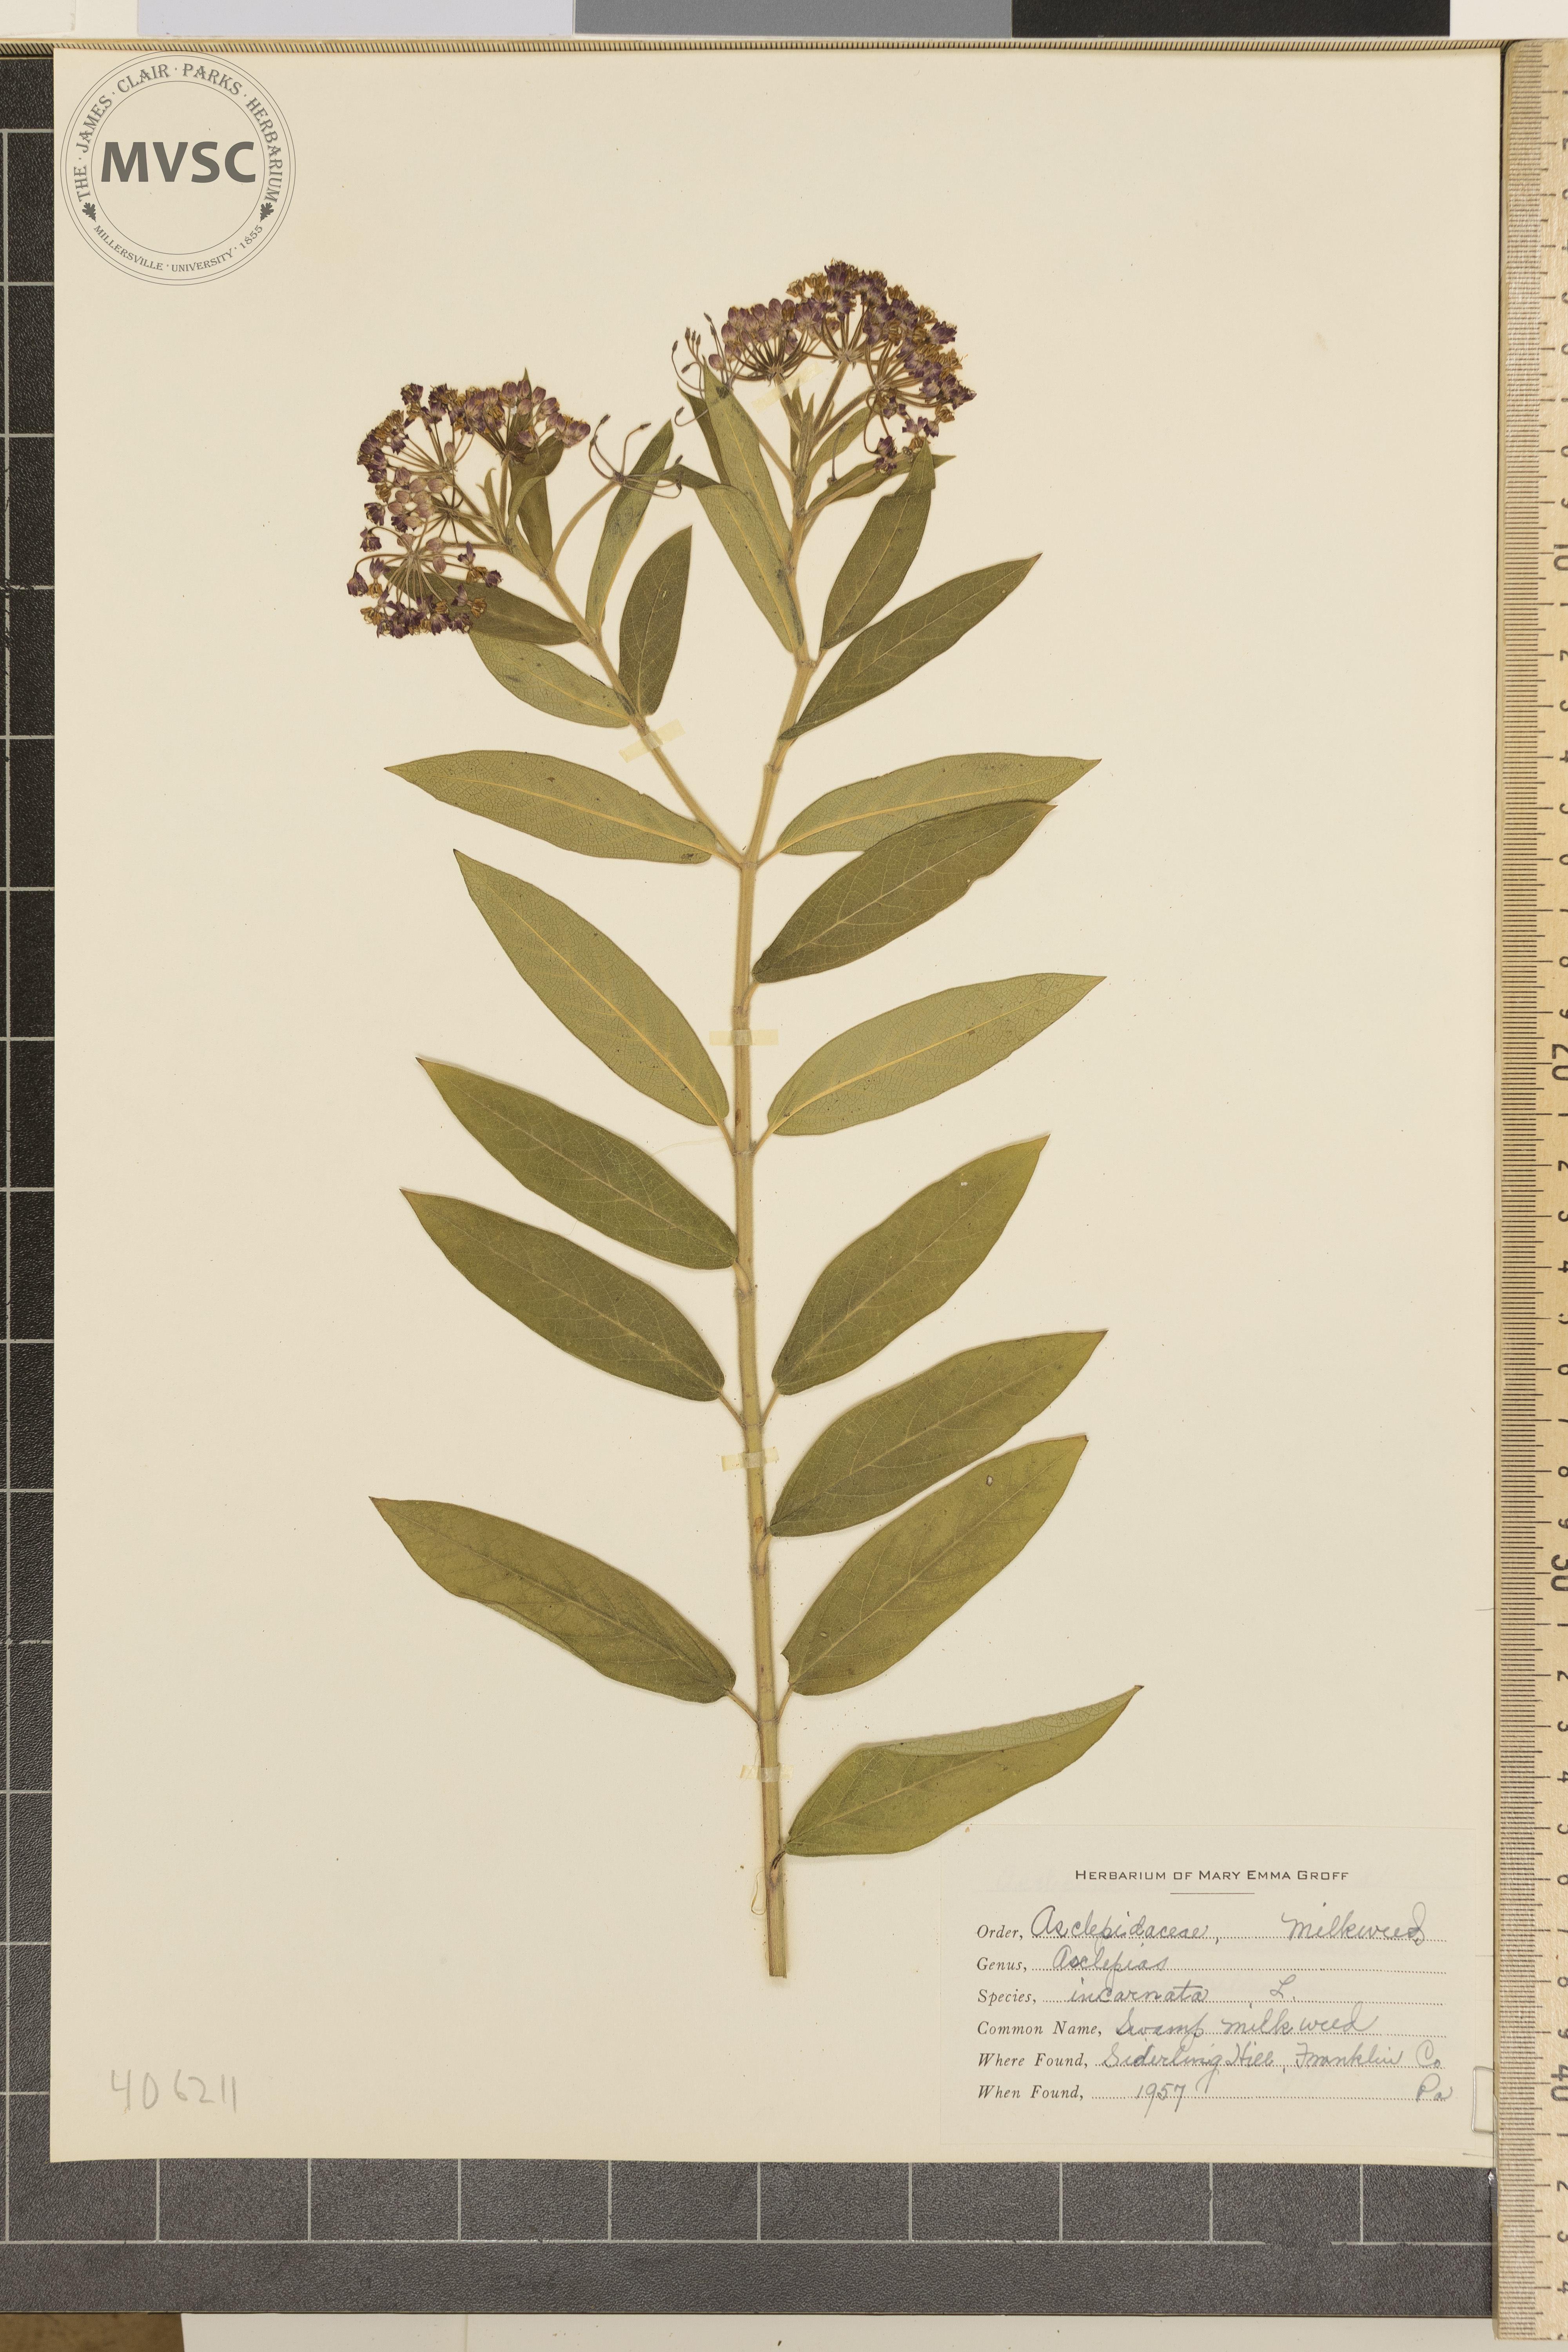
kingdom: Plantae
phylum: Tracheophyta
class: Magnoliopsida
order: Gentianales
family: Apocynaceae
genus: Asclepias
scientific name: Asclepias incarnata
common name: Swamp Milkweed
